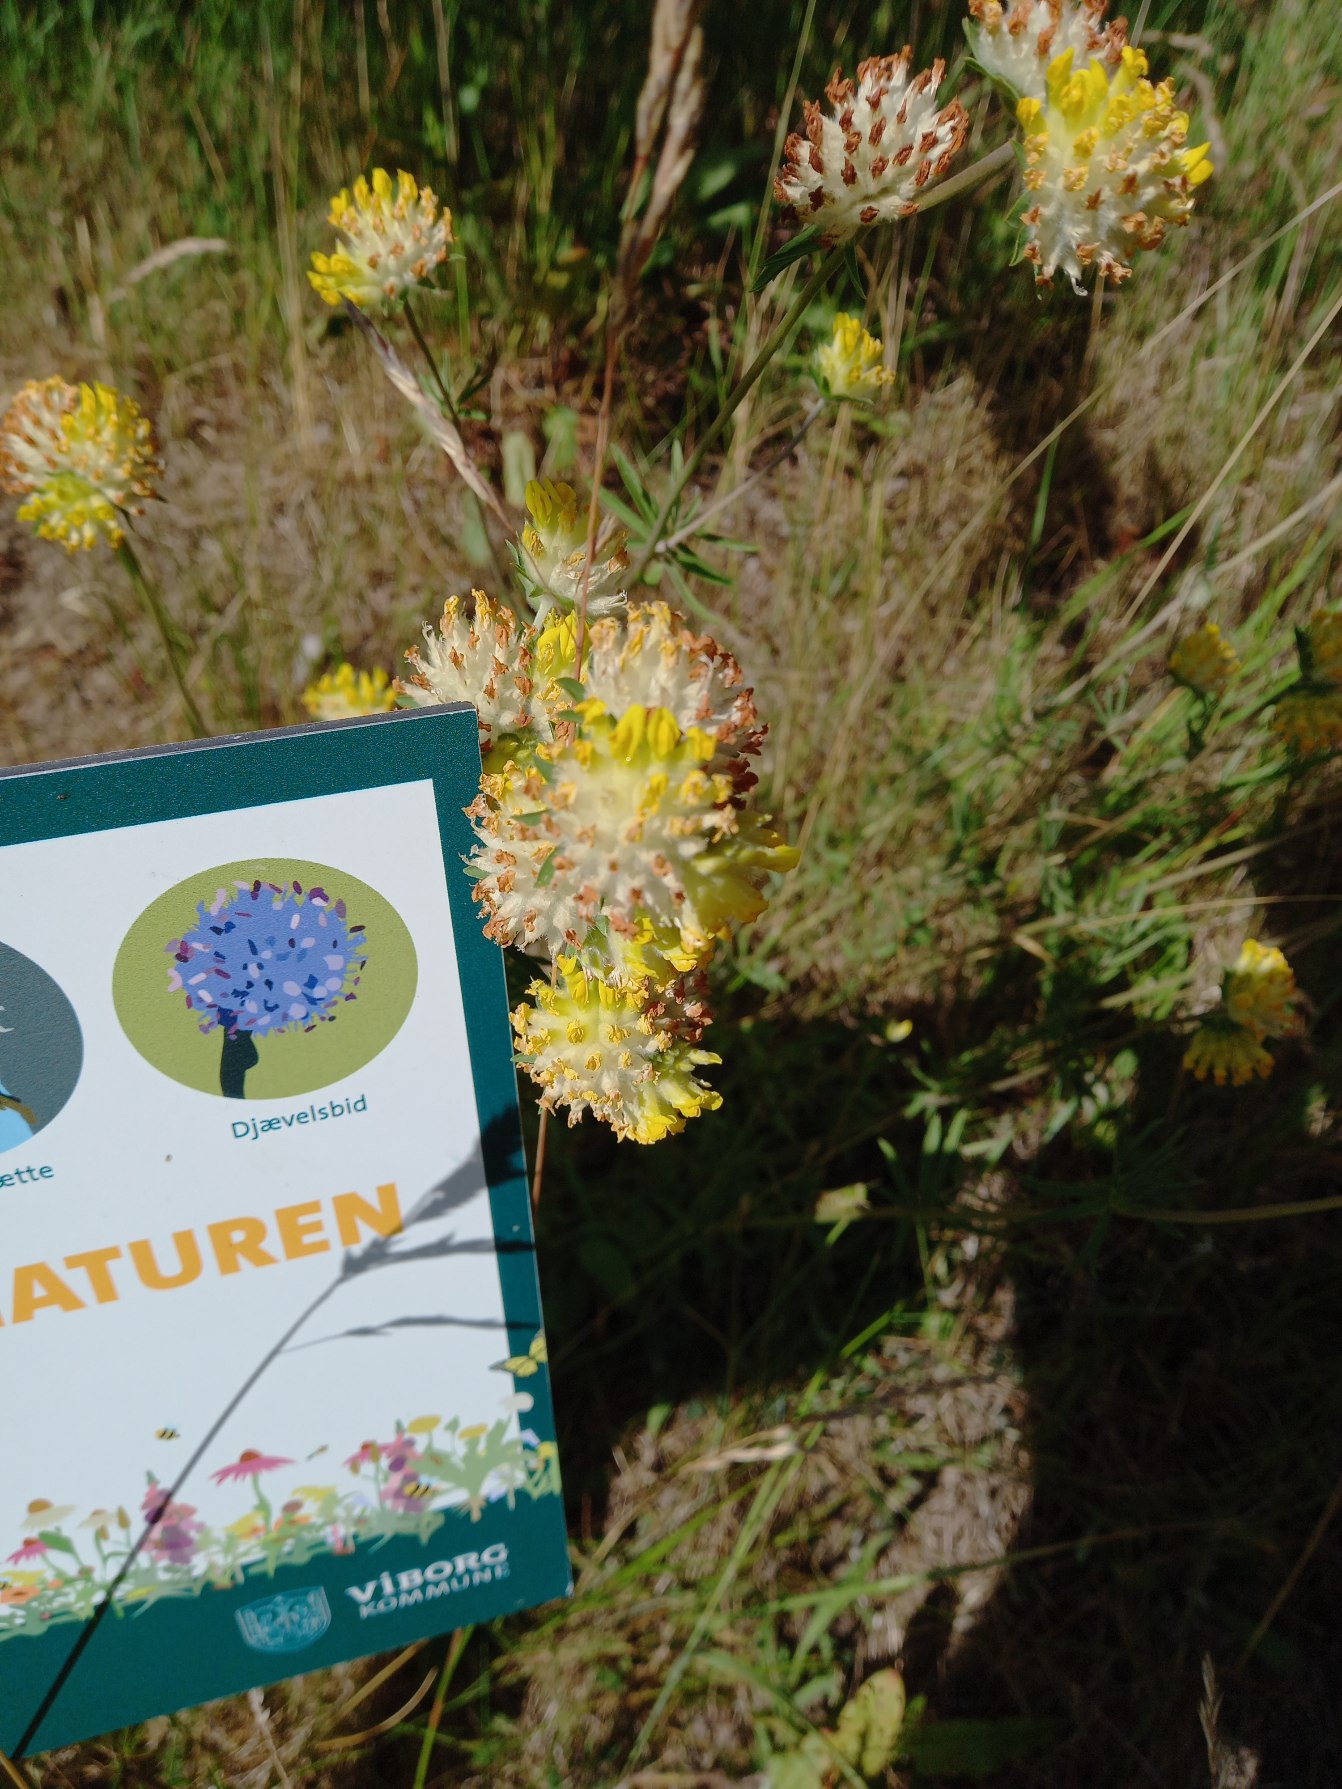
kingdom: Plantae
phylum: Tracheophyta
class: Magnoliopsida
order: Fabales
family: Fabaceae
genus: Anthyllis
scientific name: Anthyllis vulneraria
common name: Rundbælg
